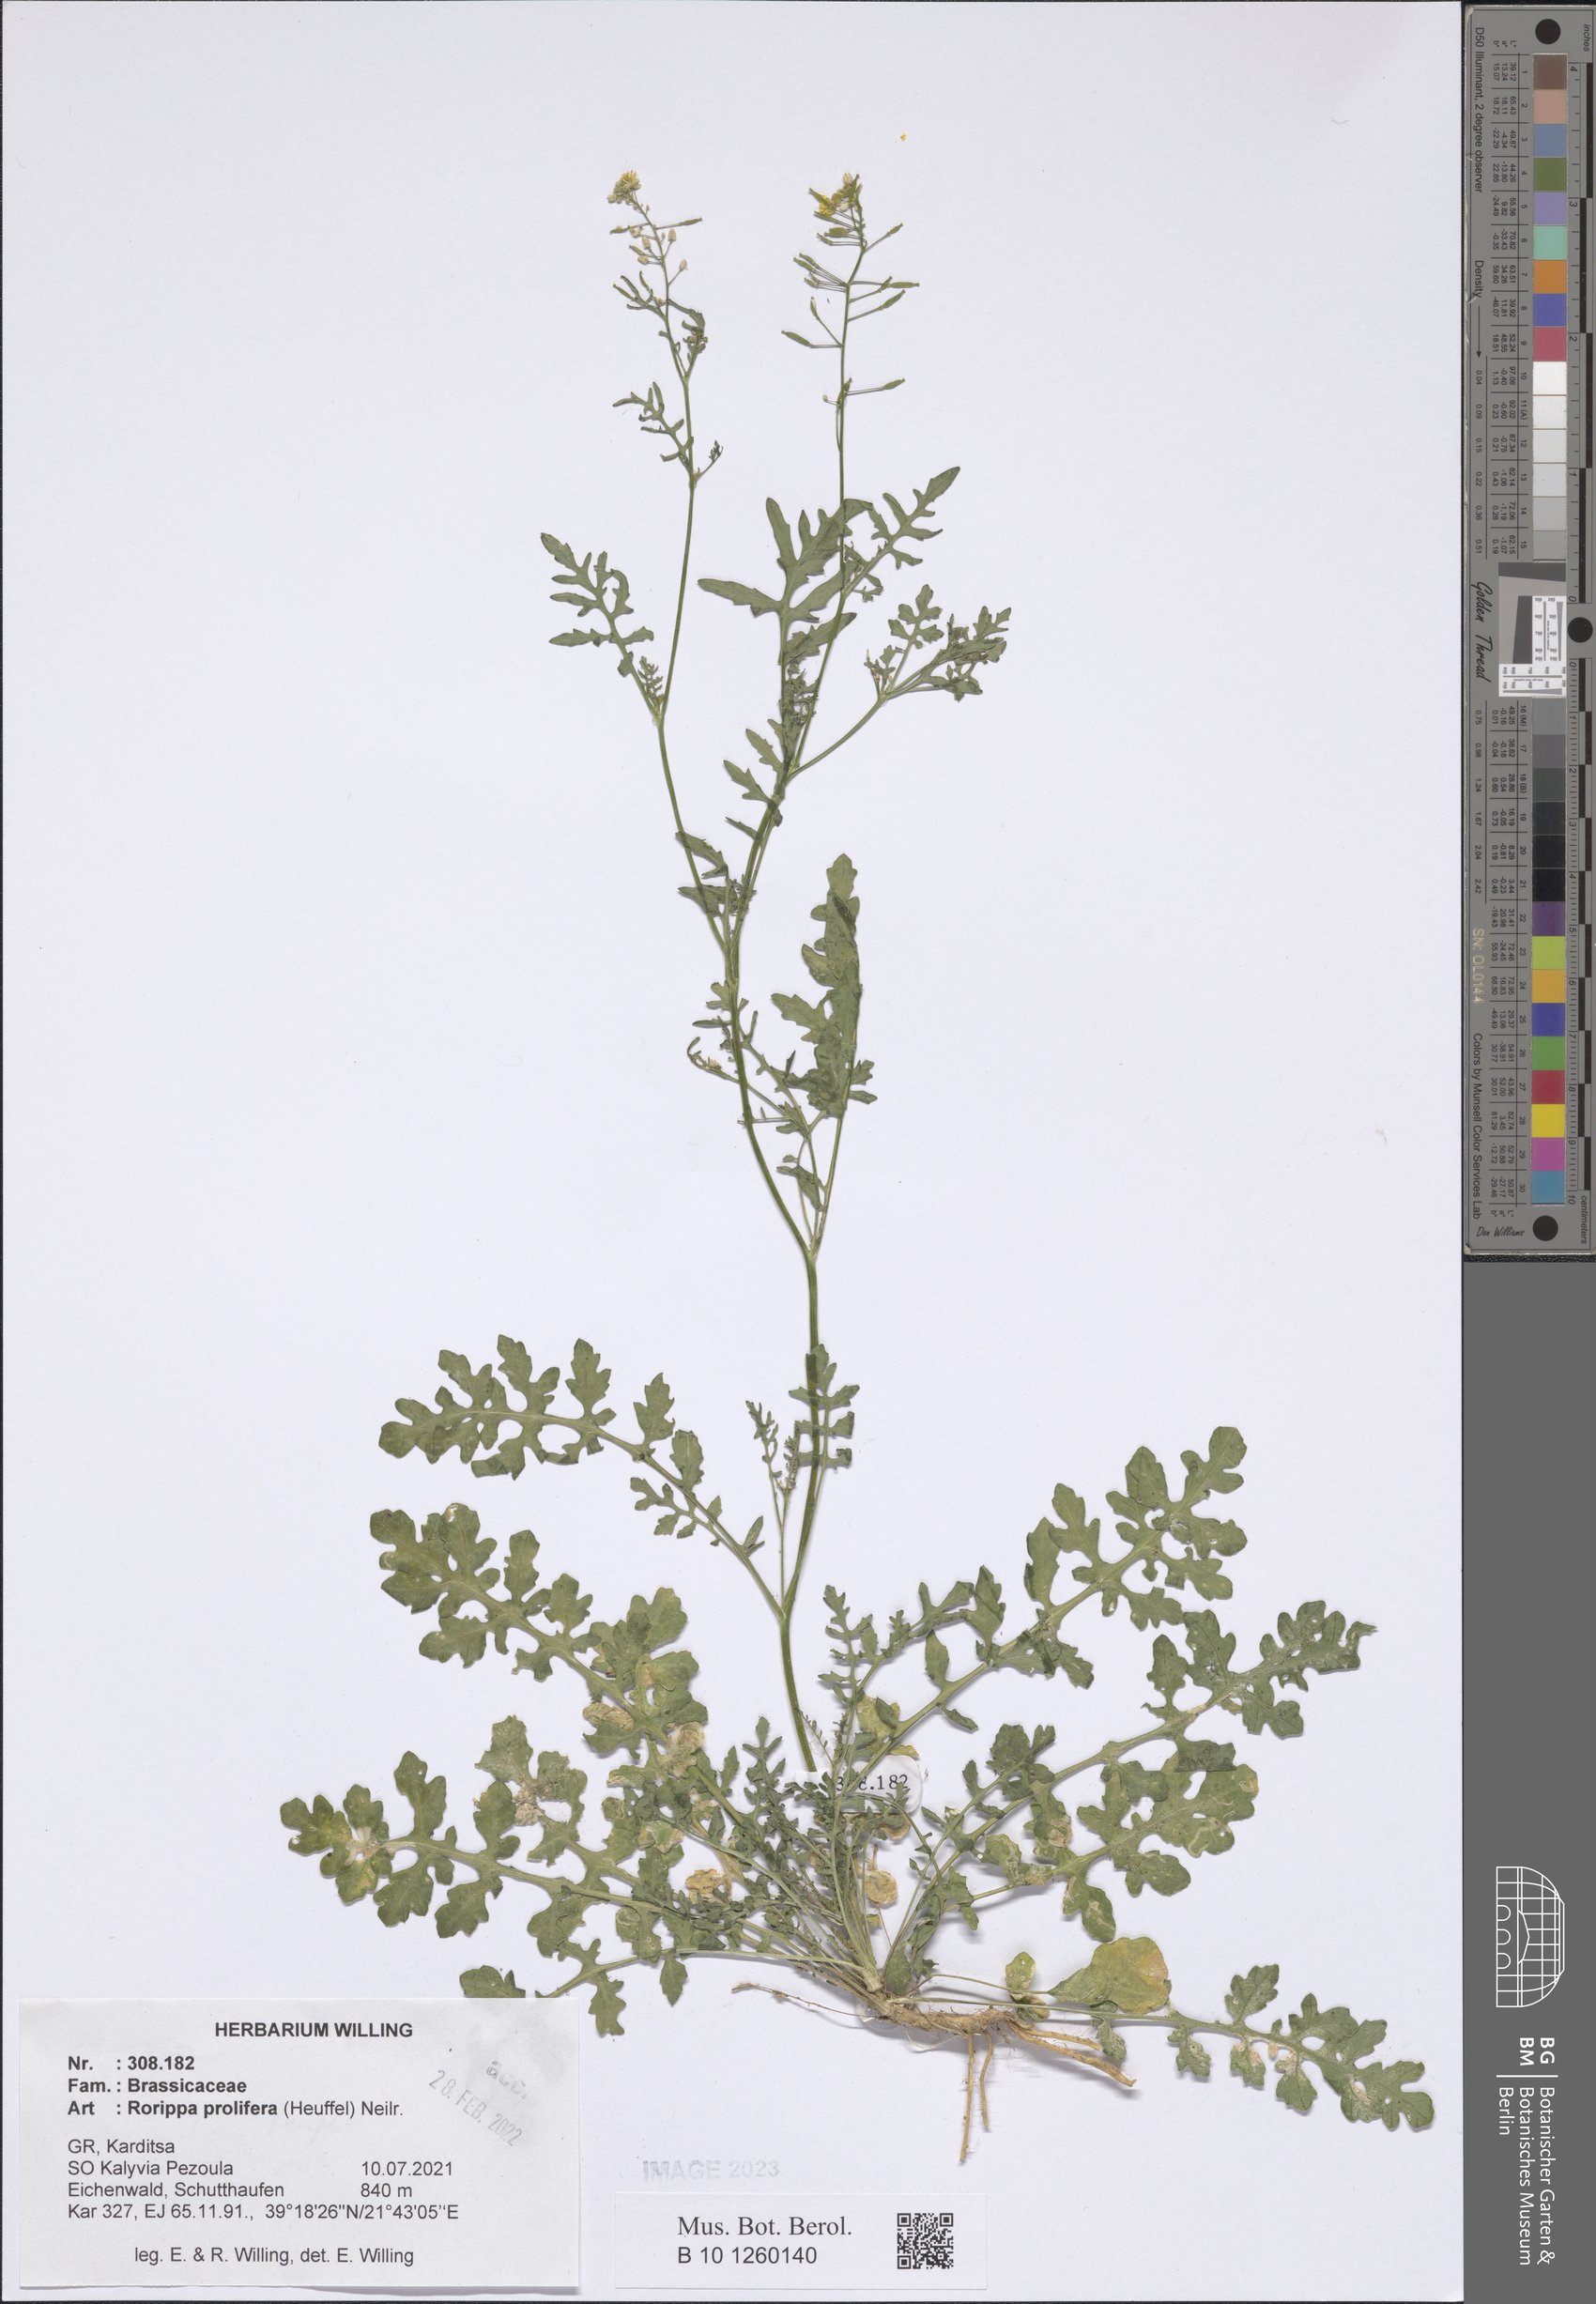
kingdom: Plantae
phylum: Tracheophyta
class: Magnoliopsida
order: Brassicales
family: Brassicaceae
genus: Rorippa
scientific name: Rorippa prolifera
